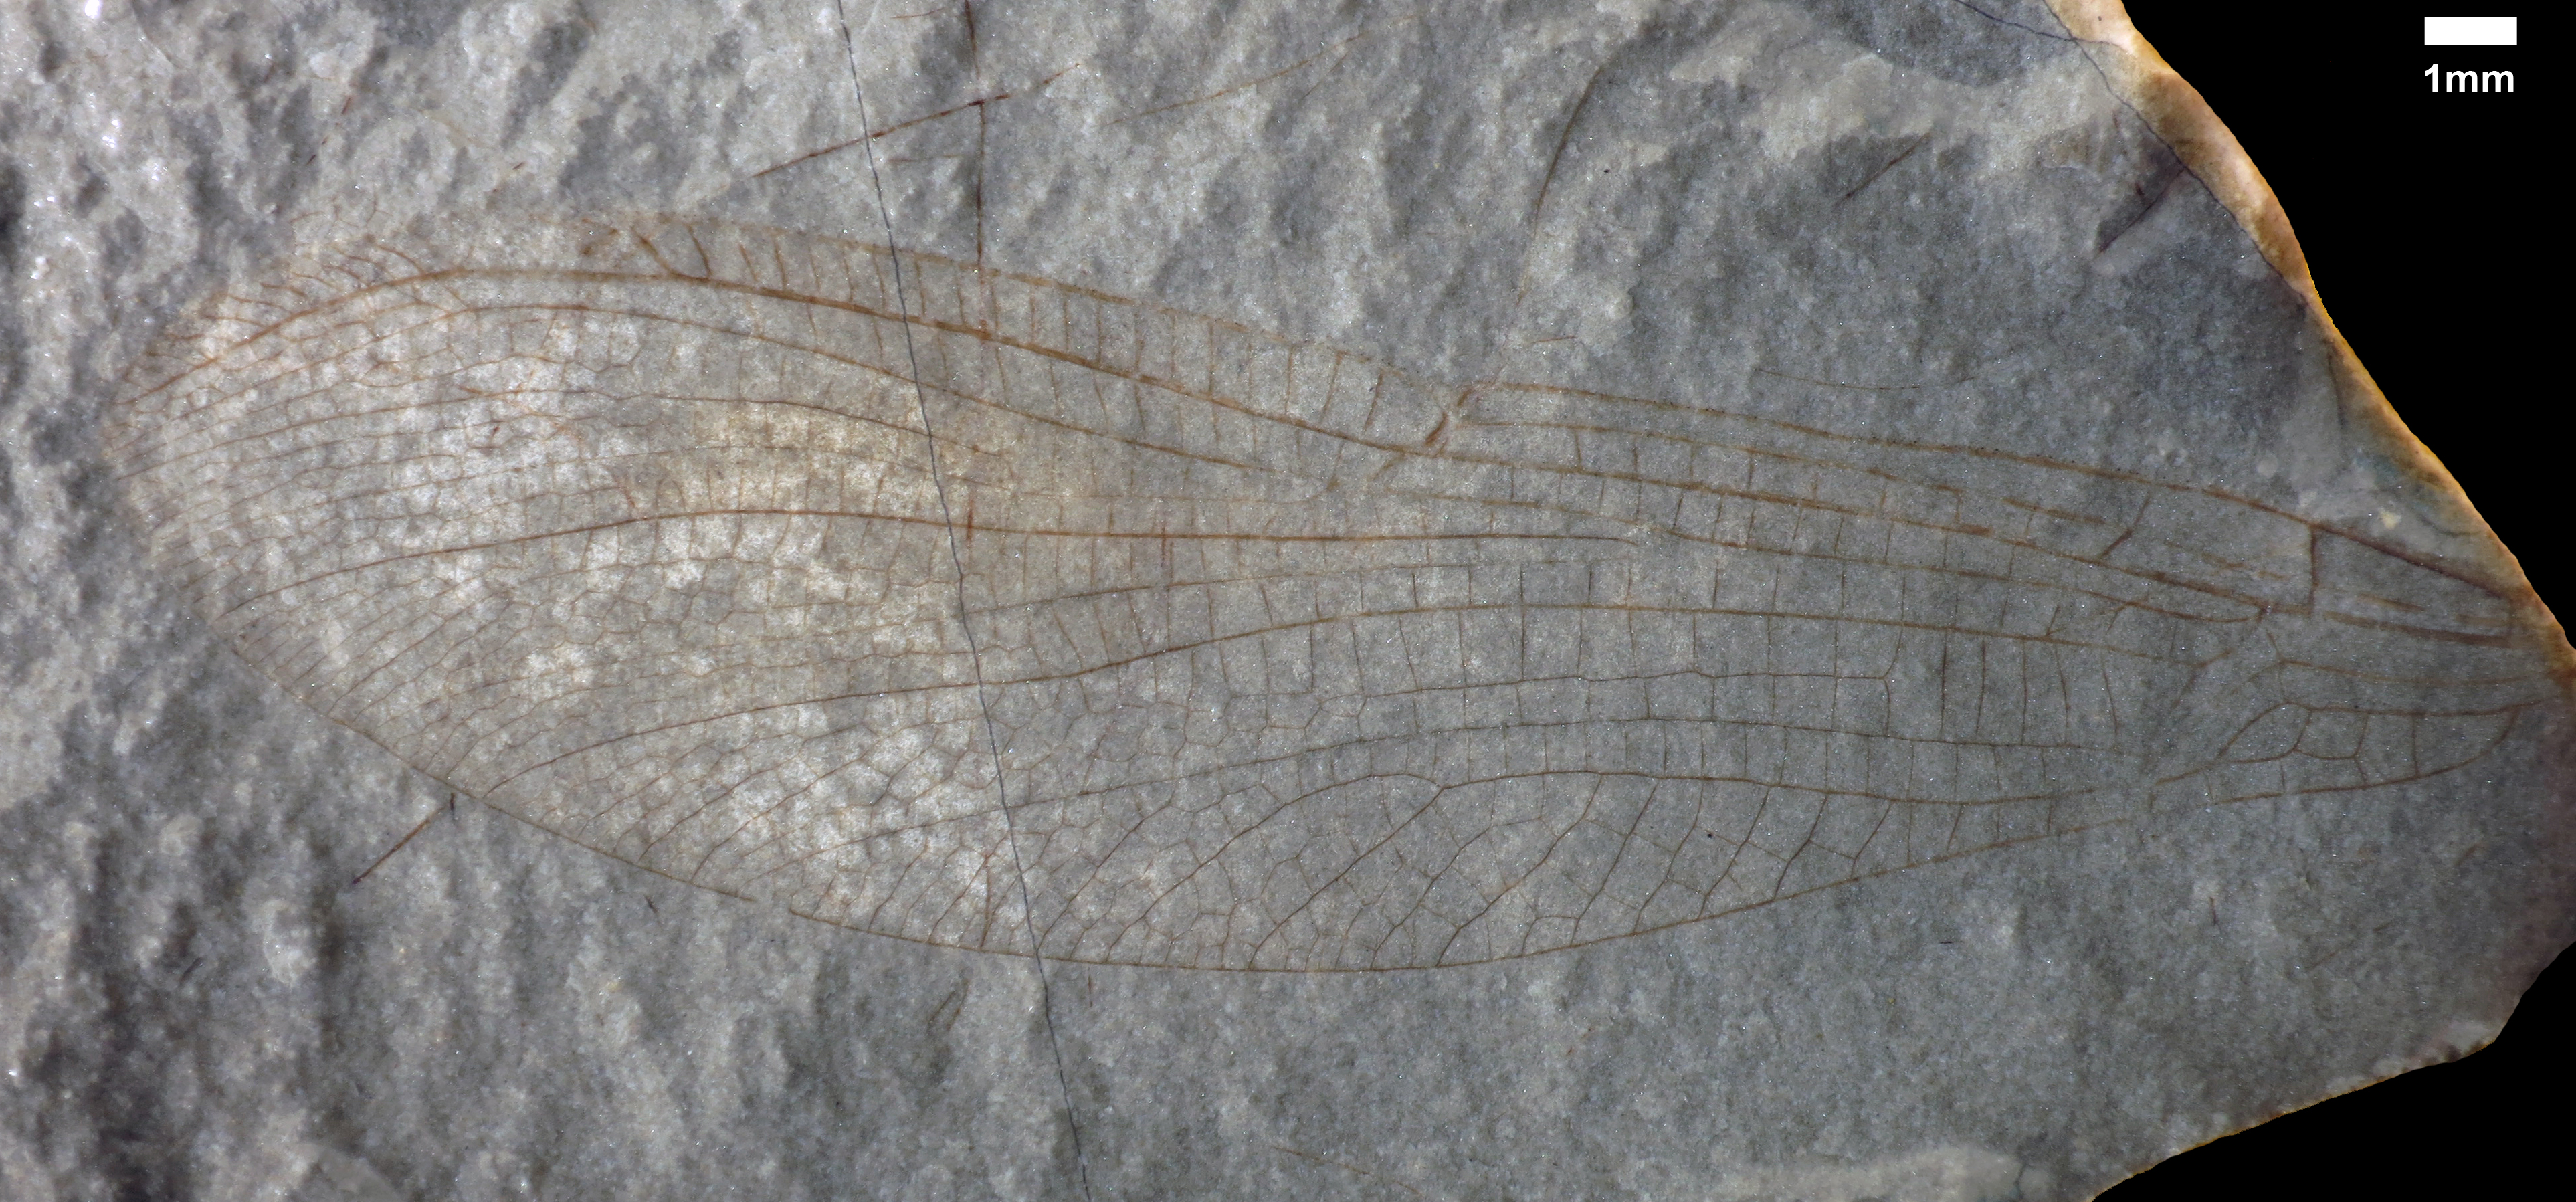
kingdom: Animalia
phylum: Arthropoda
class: Insecta
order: Odonata
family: Heterophlebiidae
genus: Heterophlebia
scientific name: Heterophlebia buckmani
